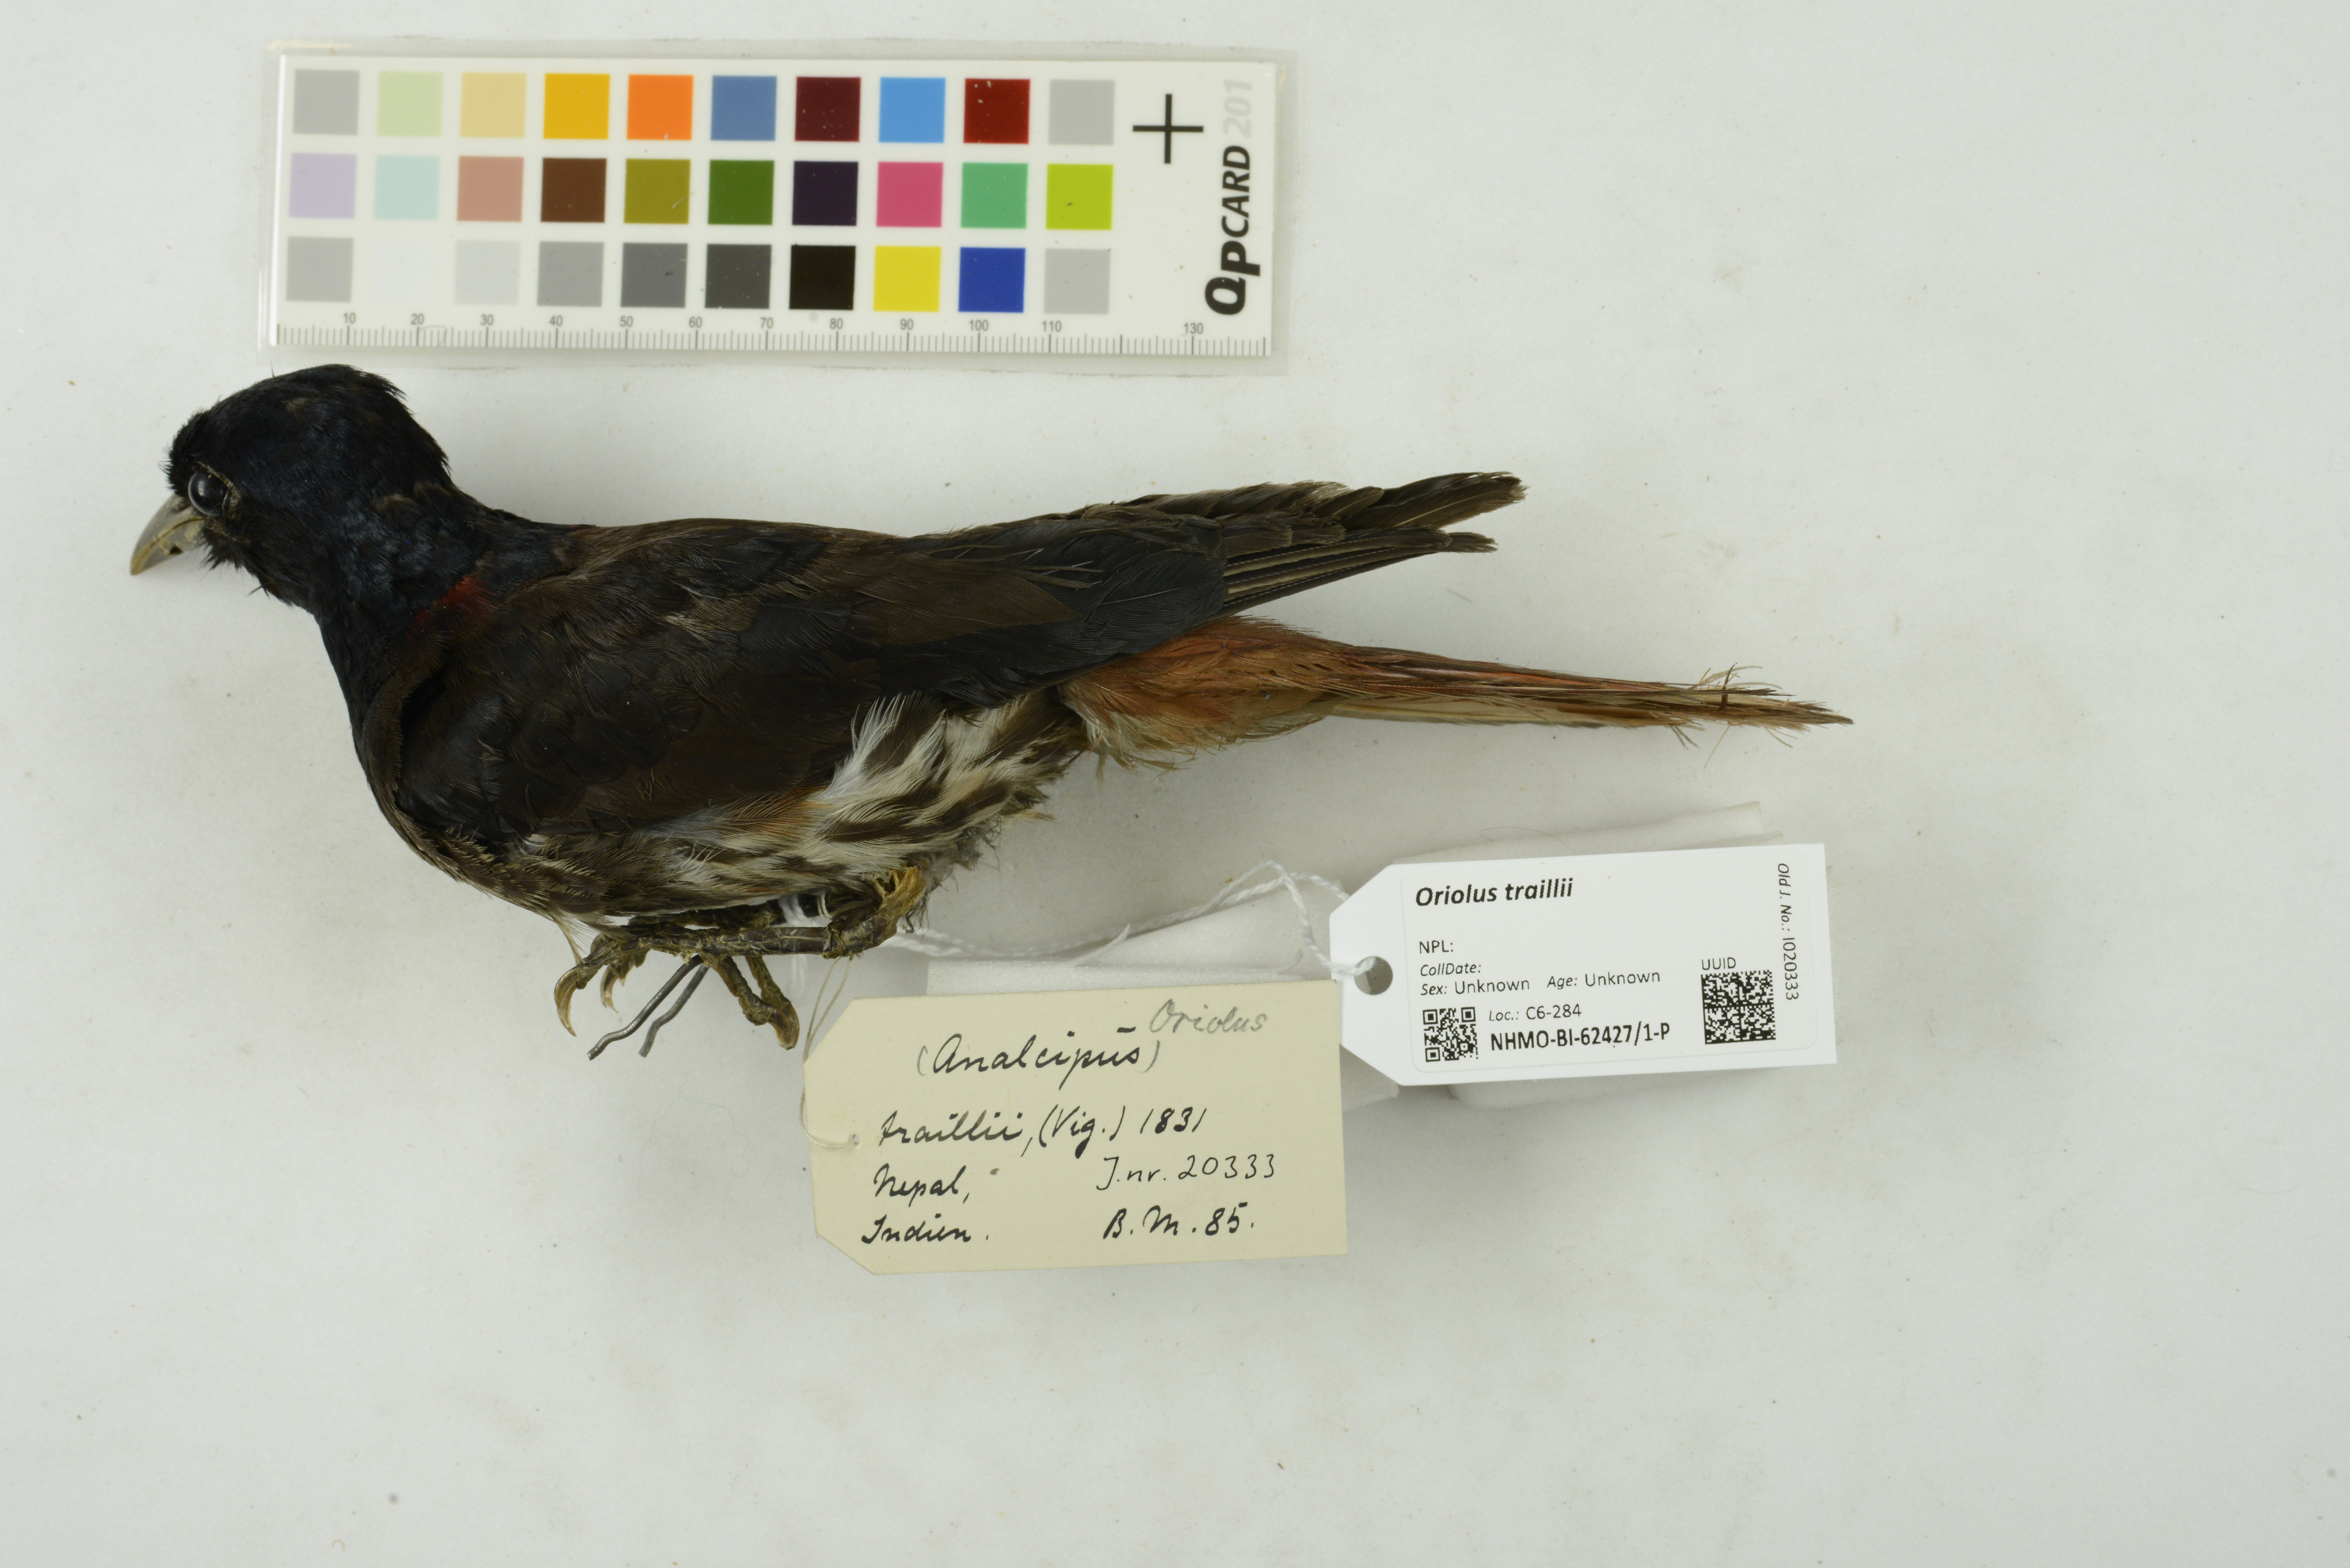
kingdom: Animalia
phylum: Chordata
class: Aves
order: Passeriformes
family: Oriolidae
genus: Oriolus
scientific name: Oriolus traillii
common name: Maroon oriole
